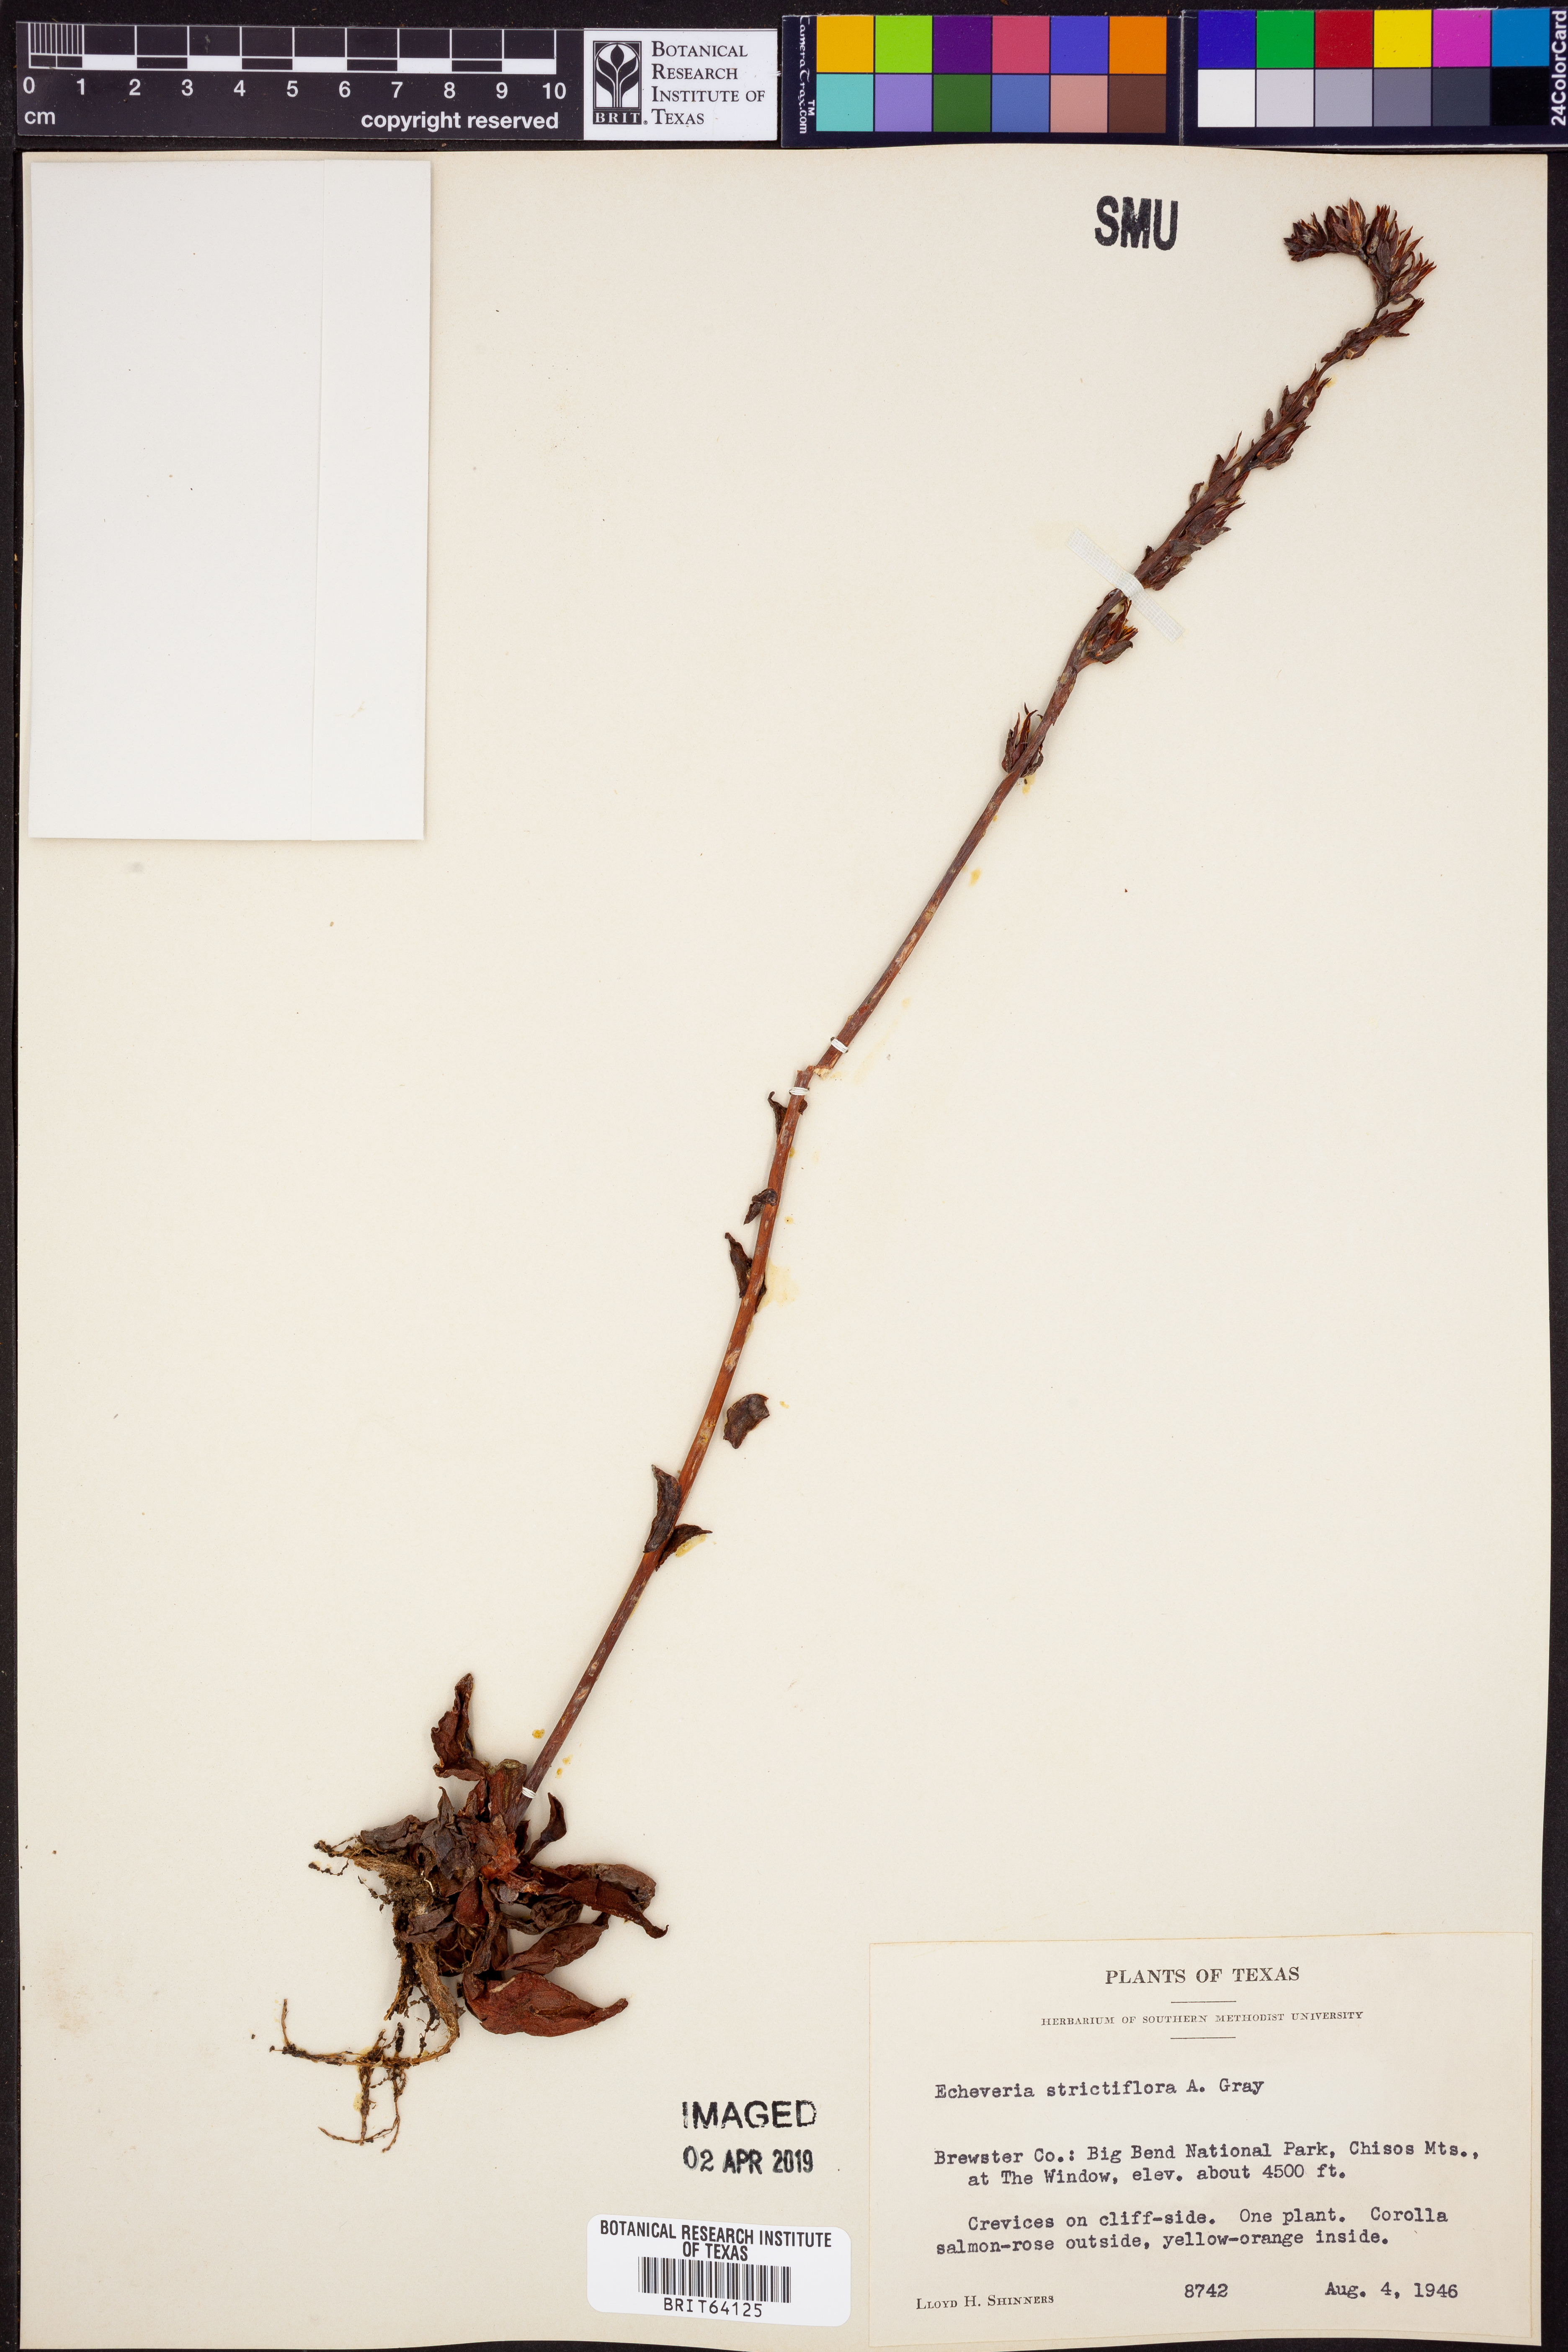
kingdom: Plantae
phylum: Tracheophyta
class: Magnoliopsida
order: Saxifragales
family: Crassulaceae
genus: Echeveria
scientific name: Echeveria strictiflora
